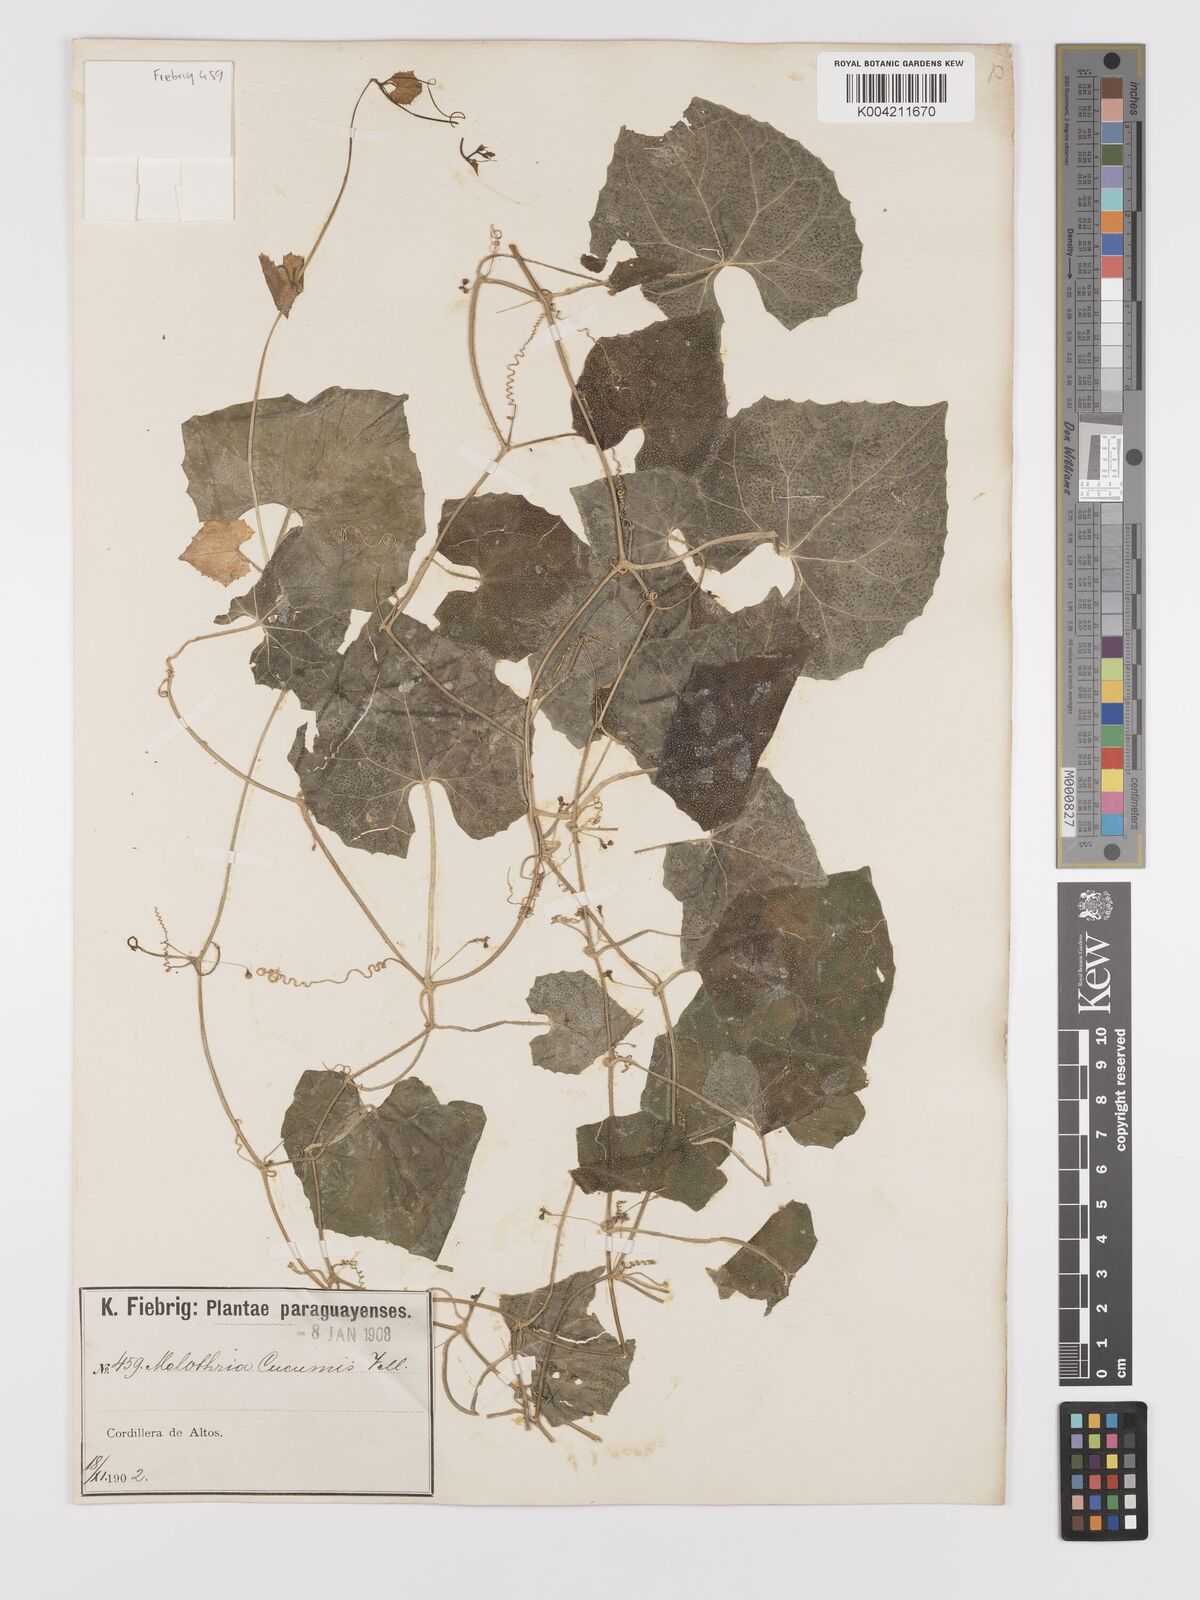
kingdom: Plantae
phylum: Tracheophyta
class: Magnoliopsida
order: Cucurbitales
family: Cucurbitaceae
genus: Melothria
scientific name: Melothria cucumis
